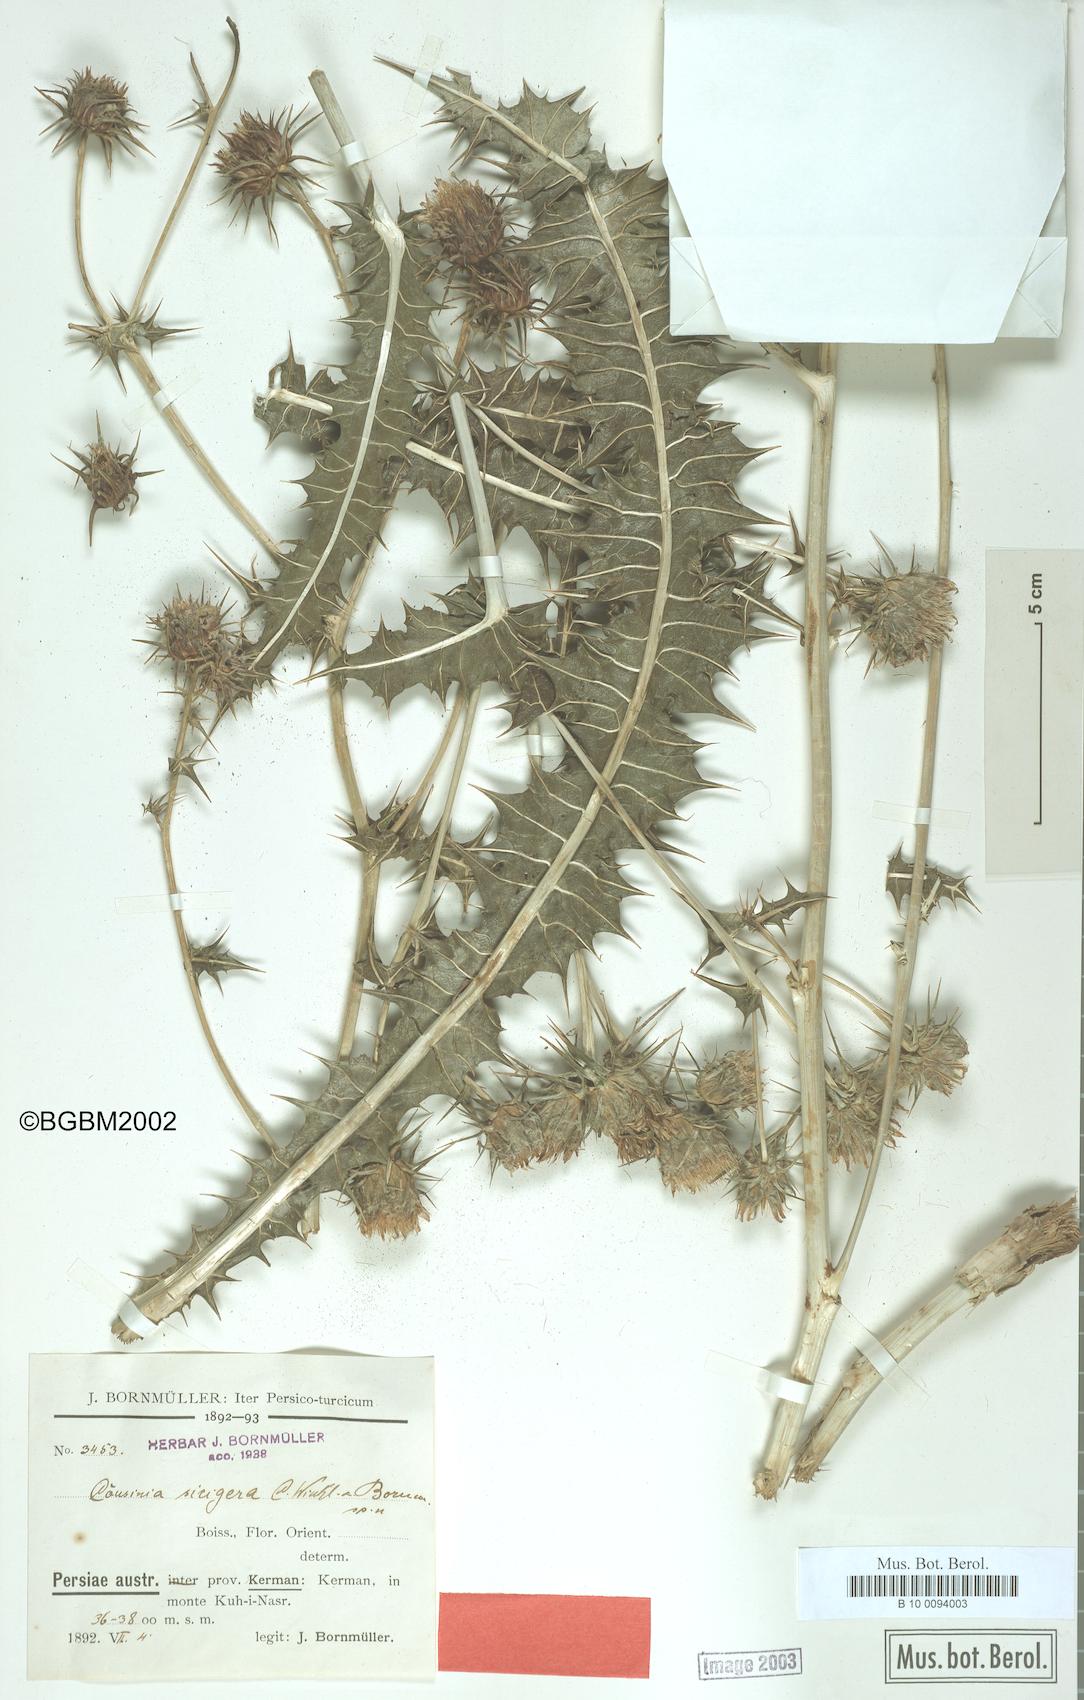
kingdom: Plantae
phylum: Tracheophyta
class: Magnoliopsida
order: Asterales
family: Asteraceae
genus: Cousinia
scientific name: Cousinia sicigera
